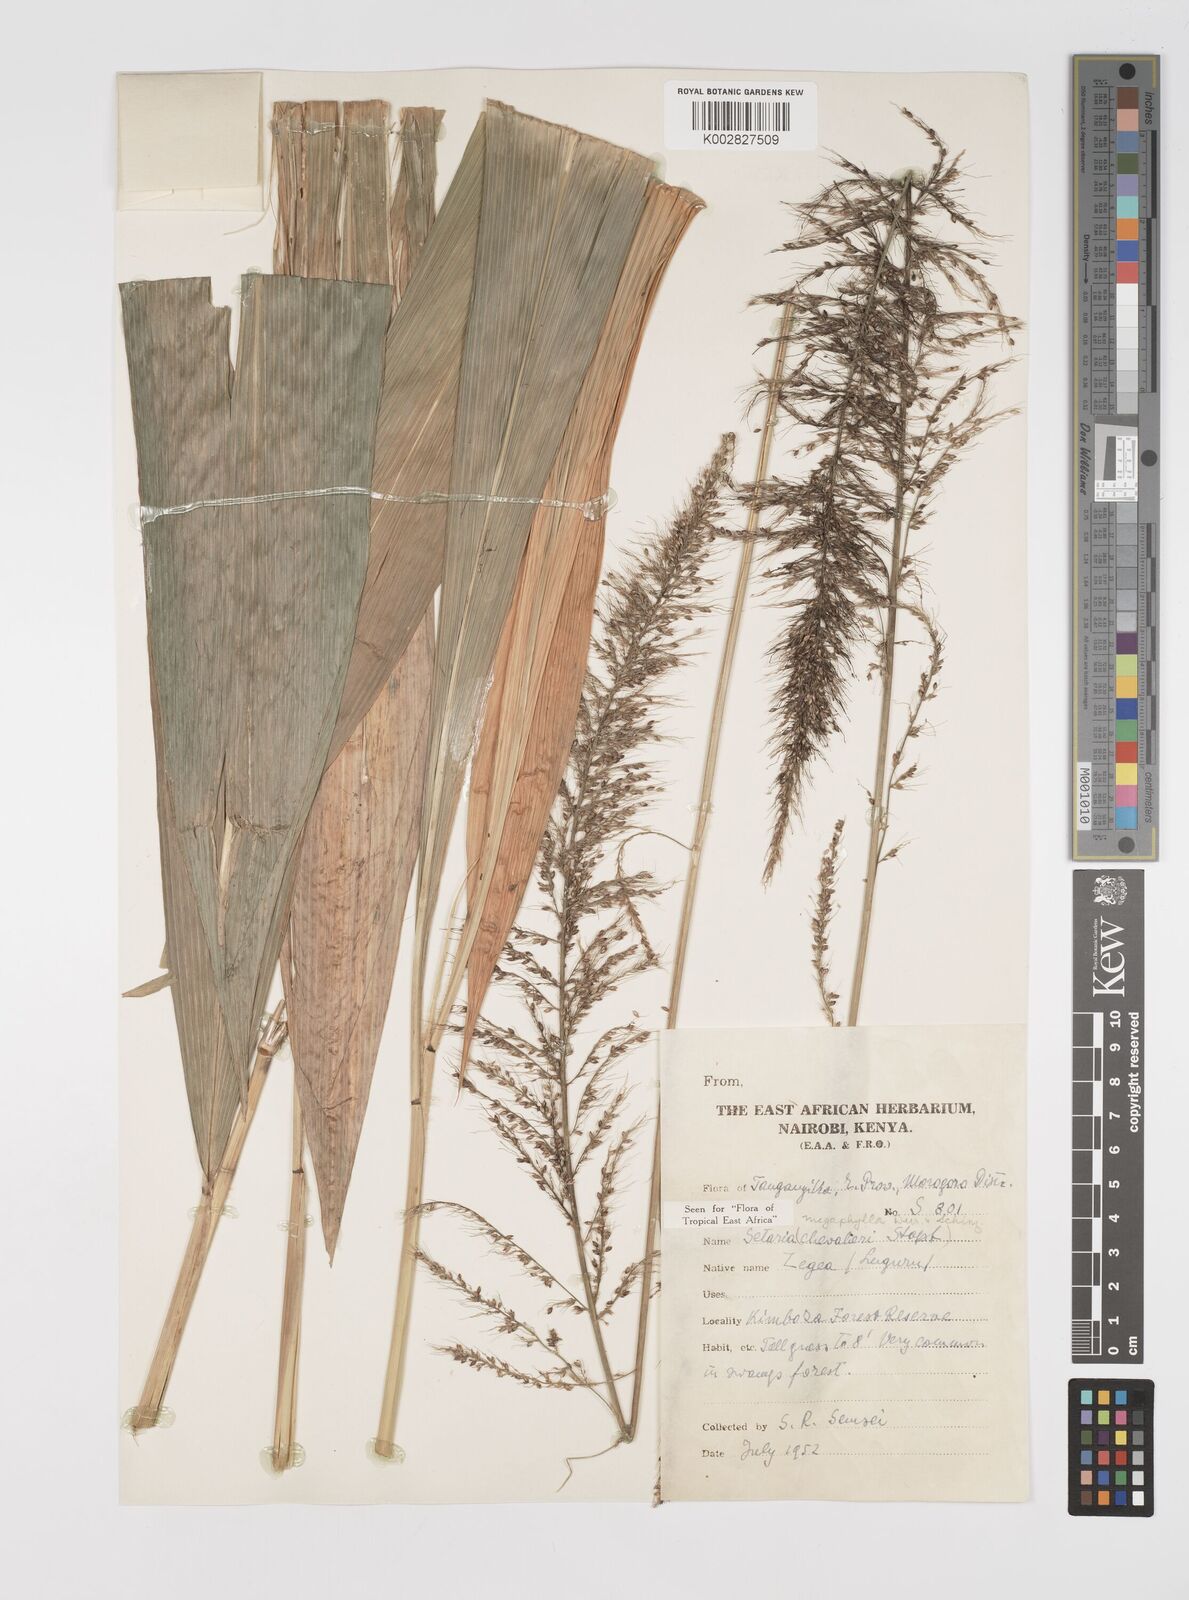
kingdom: Plantae
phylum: Tracheophyta
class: Liliopsida
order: Poales
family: Poaceae
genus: Setaria
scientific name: Setaria megaphylla
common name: Bigleaf bristlegrass
